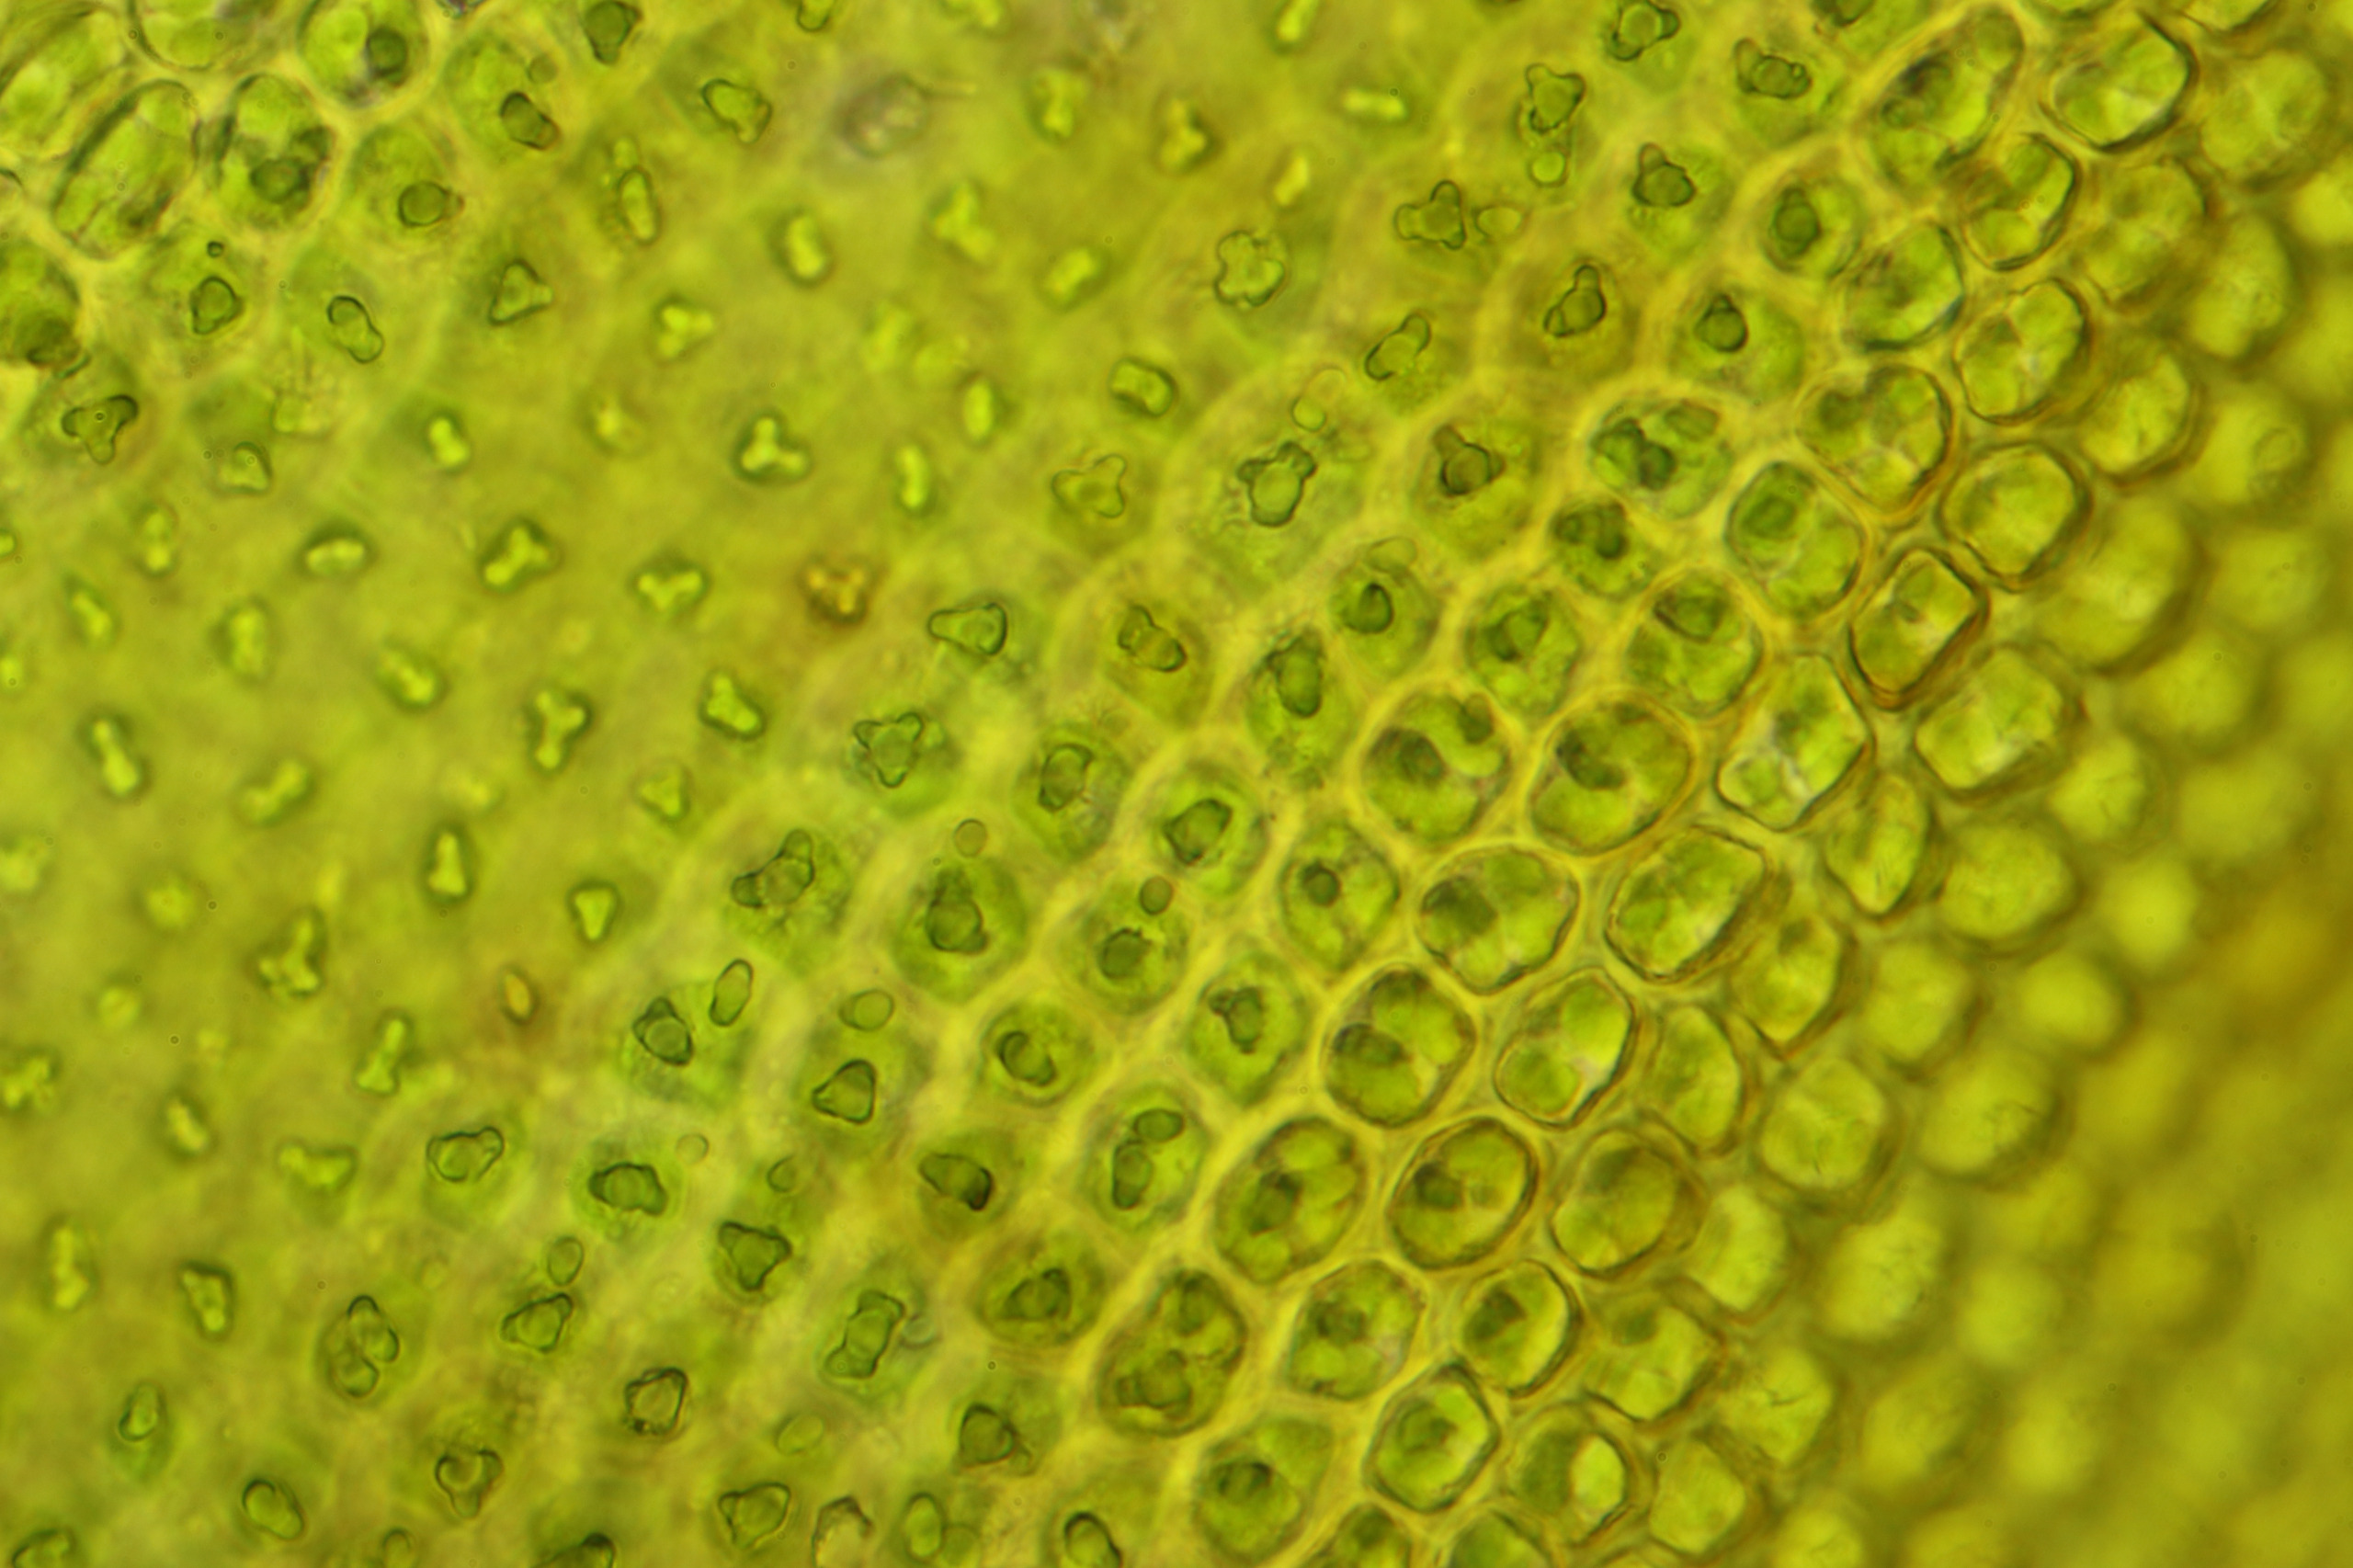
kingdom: Plantae
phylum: Bryophyta
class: Bryopsida
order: Hedwigiales
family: Hedwigiaceae
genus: Hedwigia
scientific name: Hedwigia stellata
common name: Stjernebladet hedwigia
